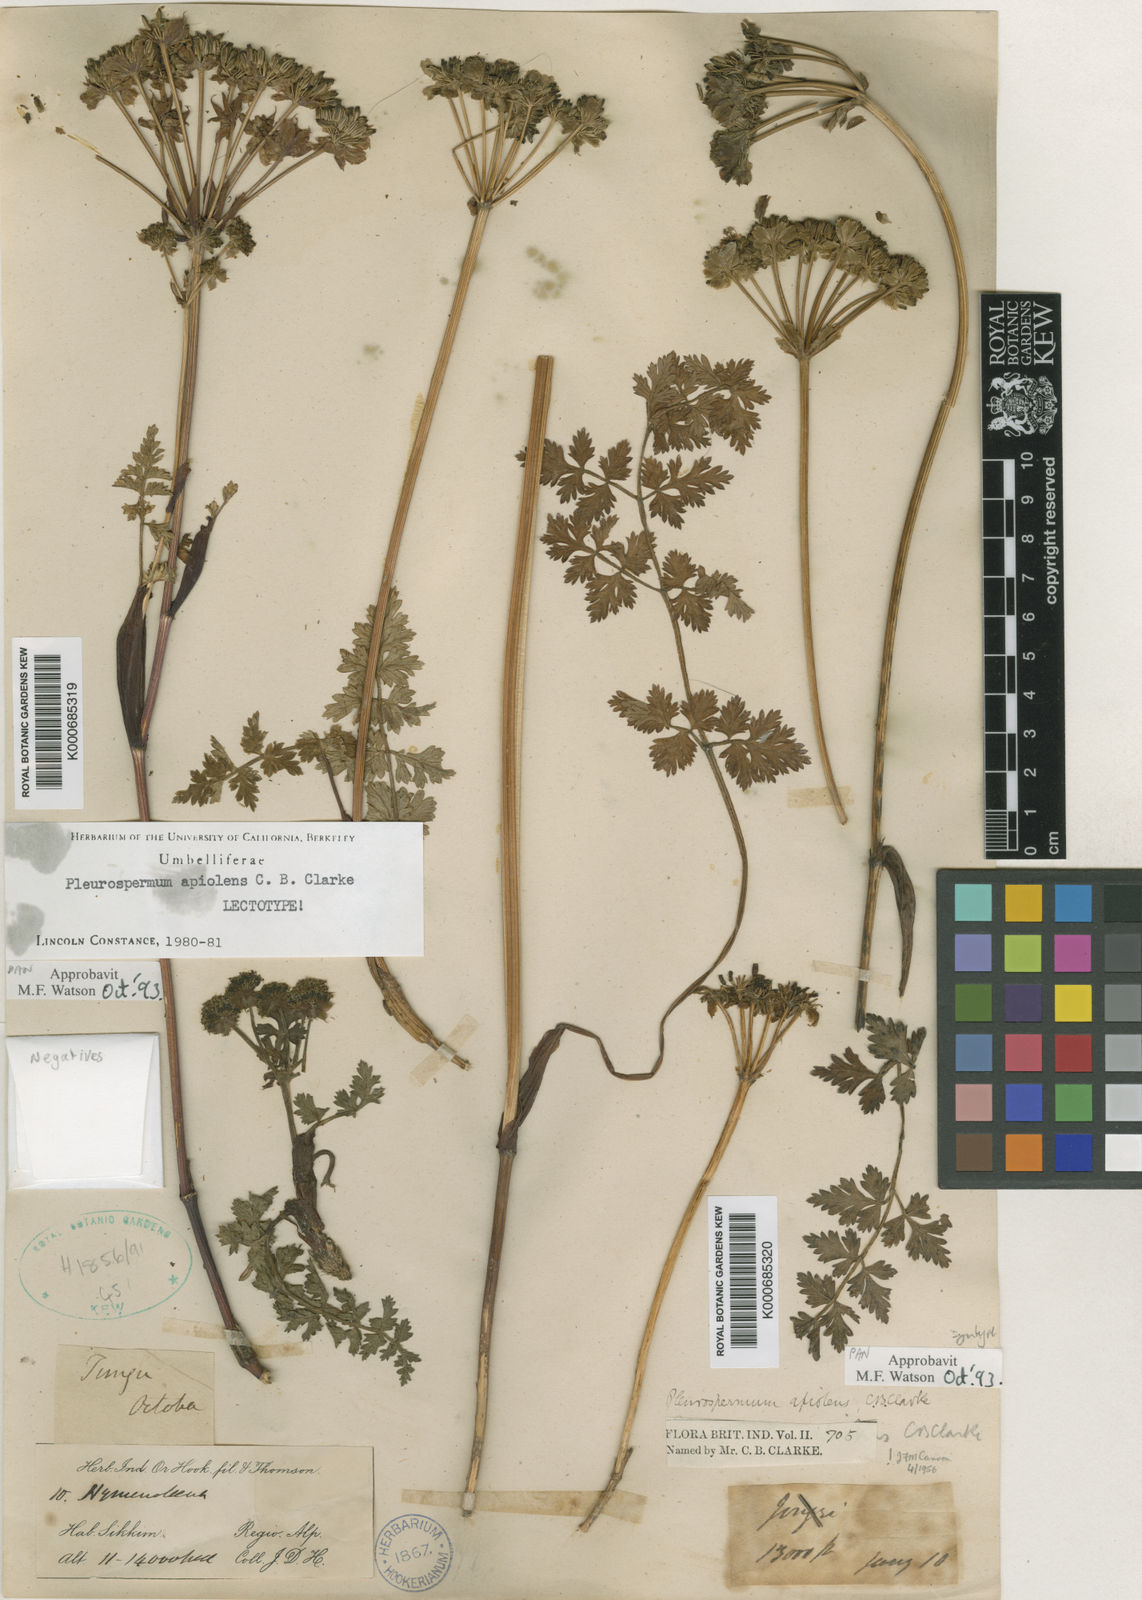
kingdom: Plantae
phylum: Tracheophyta
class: Magnoliopsida
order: Apiales
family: Apiaceae
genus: Hymenidium
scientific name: Hymenidium apiolens
